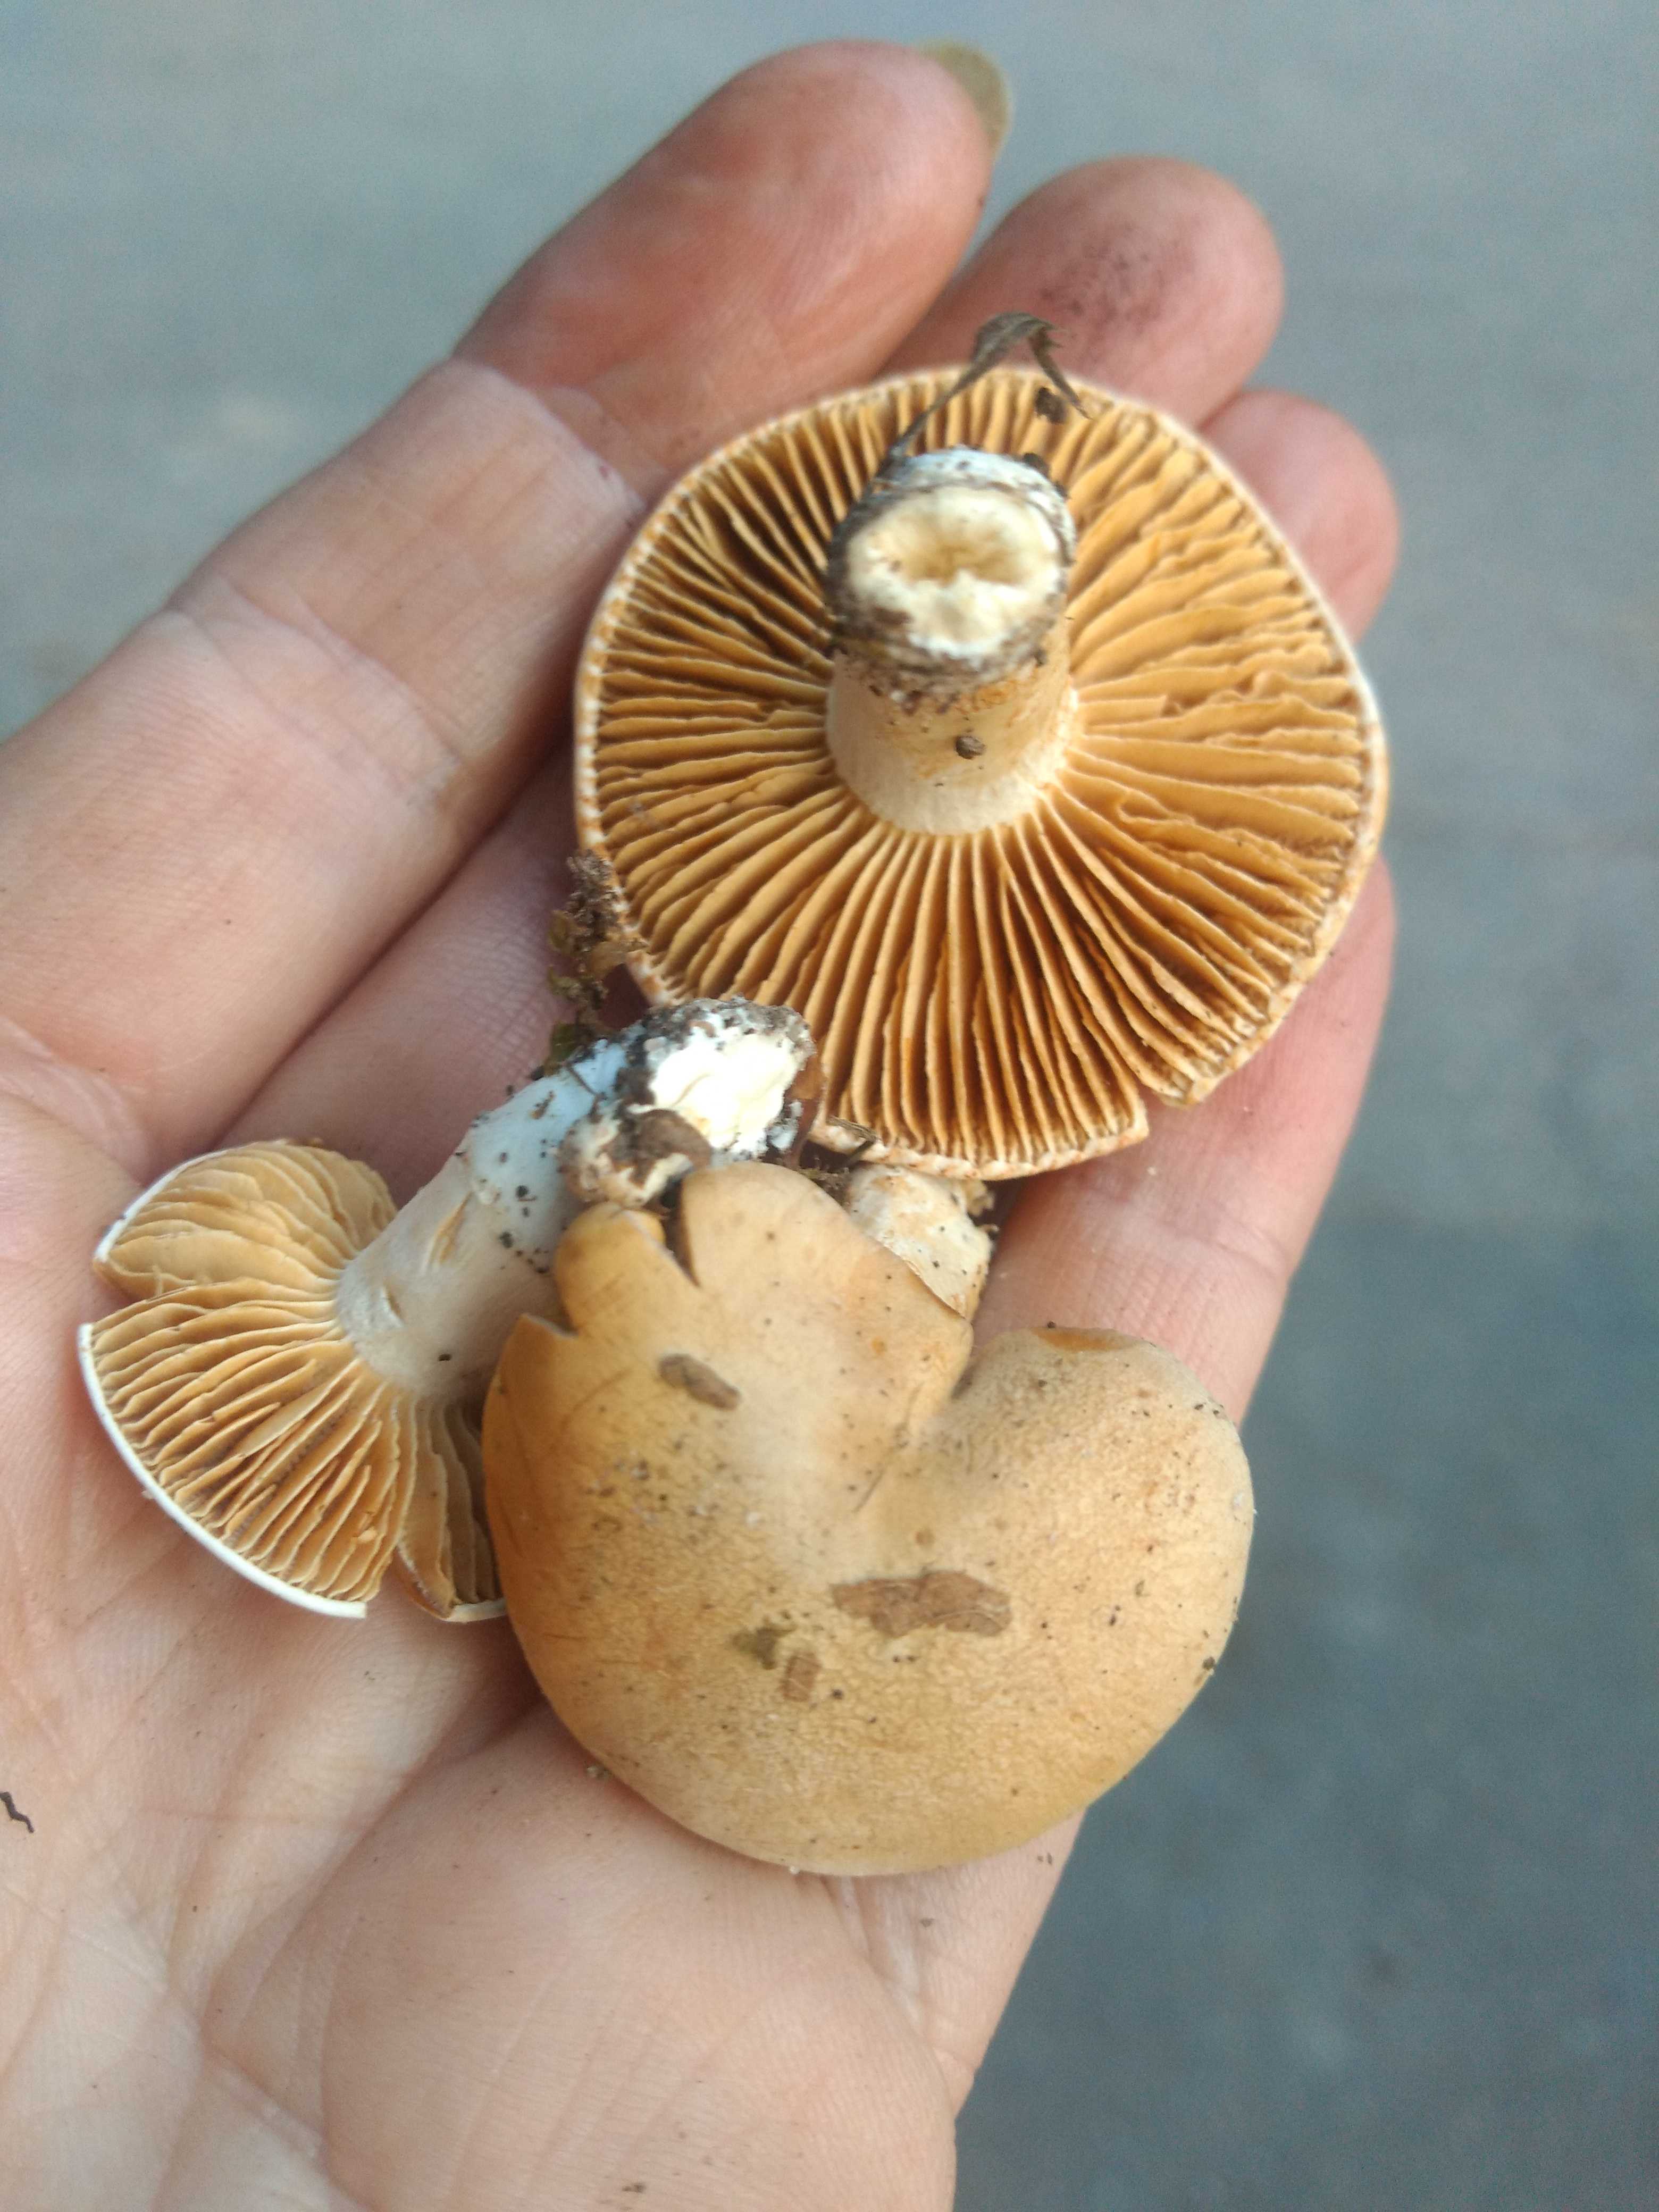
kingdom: Fungi
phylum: Basidiomycota
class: Agaricomycetes
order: Agaricales
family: Cortinariaceae
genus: Thaxterogaster
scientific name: Thaxterogaster leucoluteolus
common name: isabella slørhat
